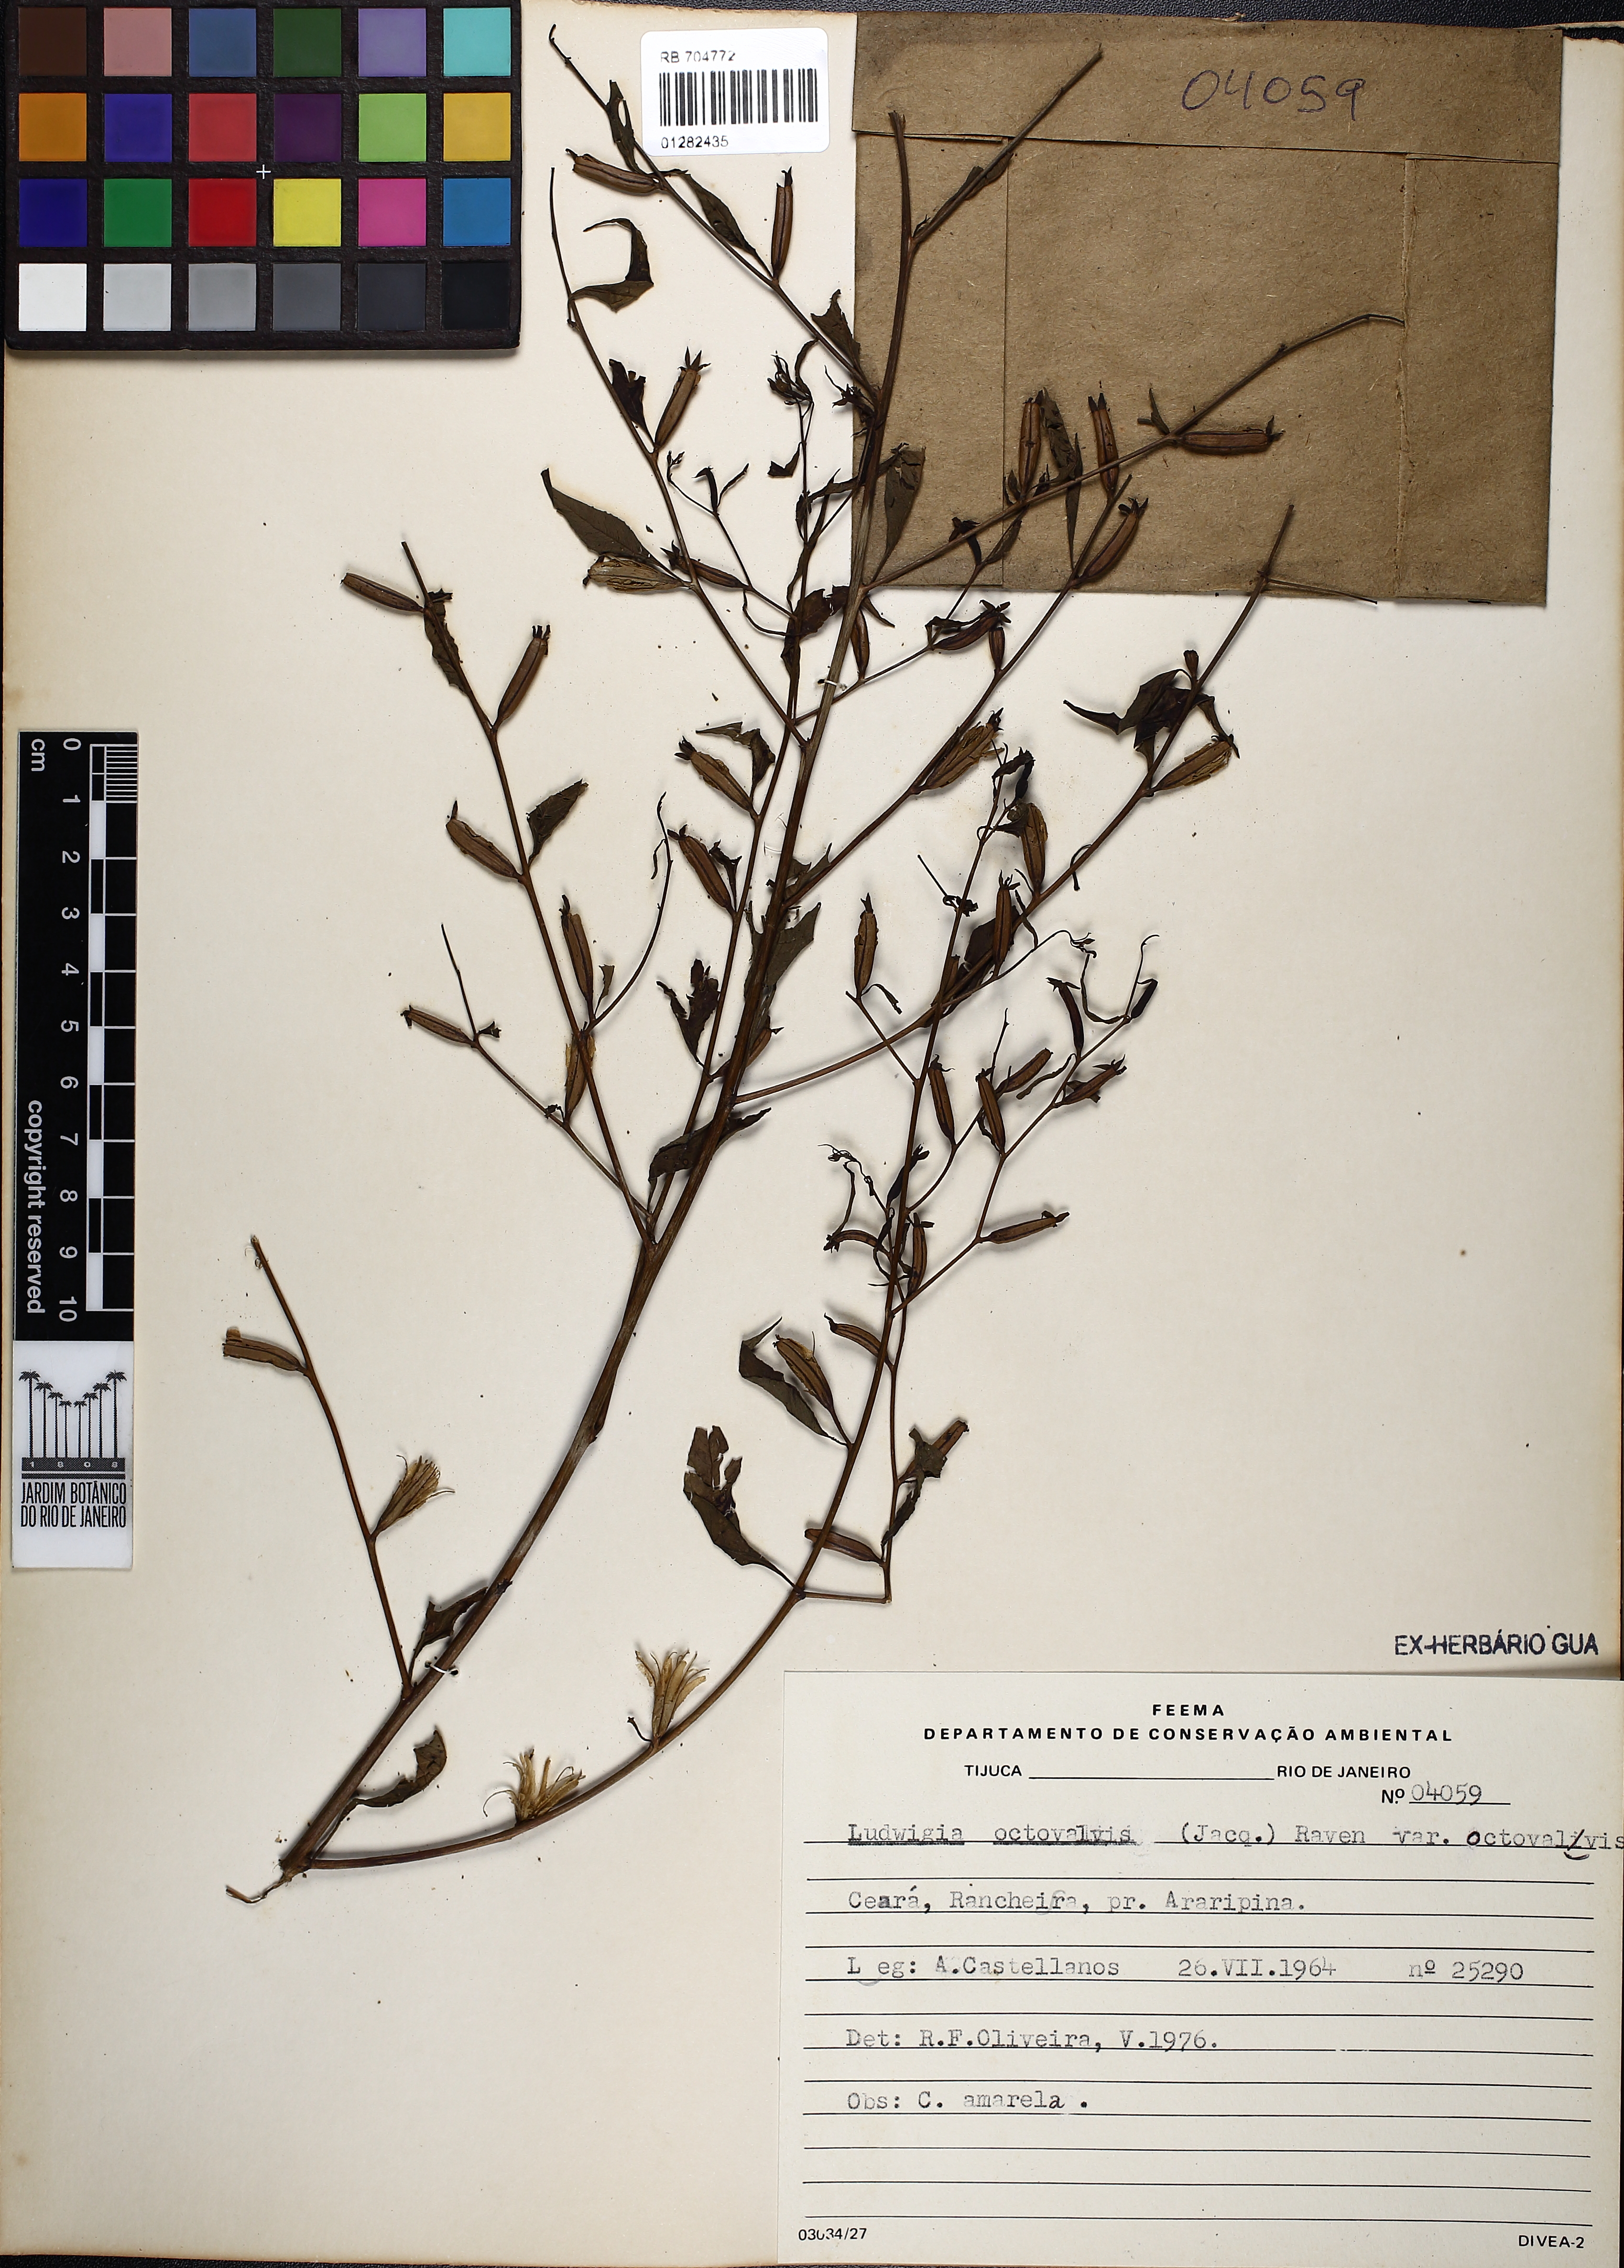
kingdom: Plantae
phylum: Tracheophyta
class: Magnoliopsida
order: Myrtales
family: Onagraceae
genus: Ludwigia
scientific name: Ludwigia octovalvis
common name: Water-primrose
